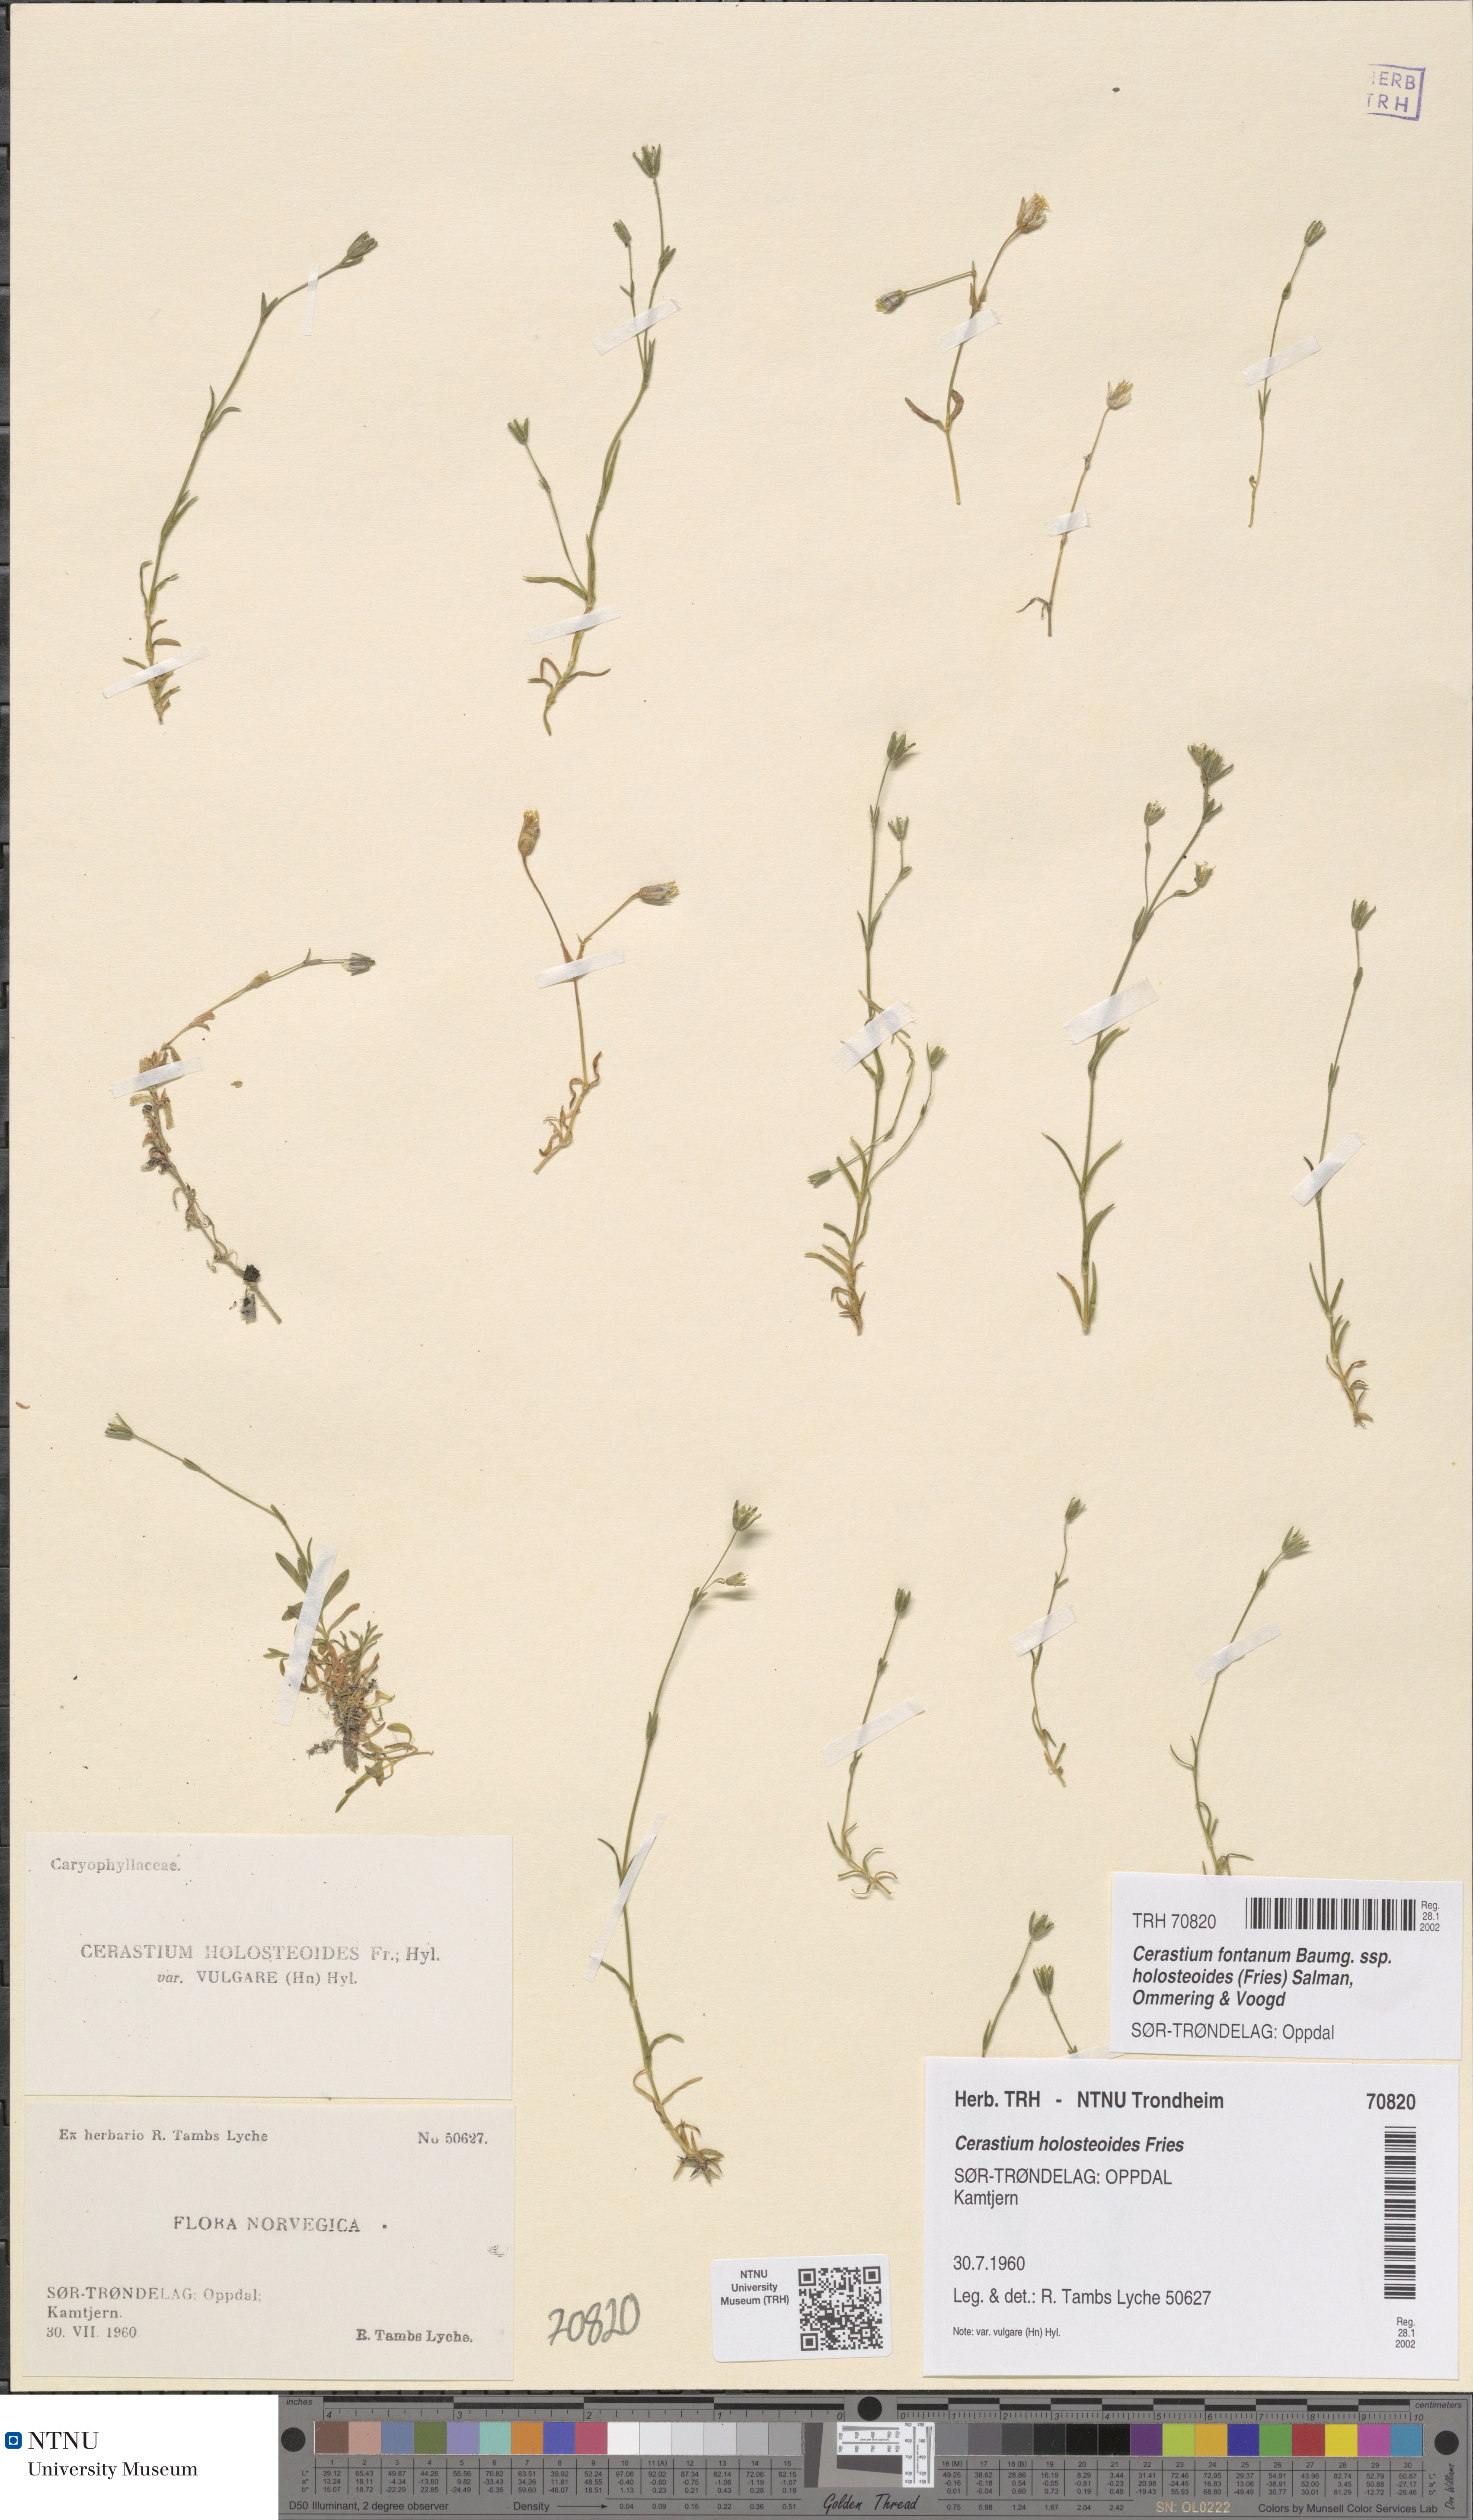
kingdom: Plantae
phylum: Tracheophyta
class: Magnoliopsida
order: Caryophyllales
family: Caryophyllaceae
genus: Cerastium
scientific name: Cerastium holosteoides
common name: Big chickweed
